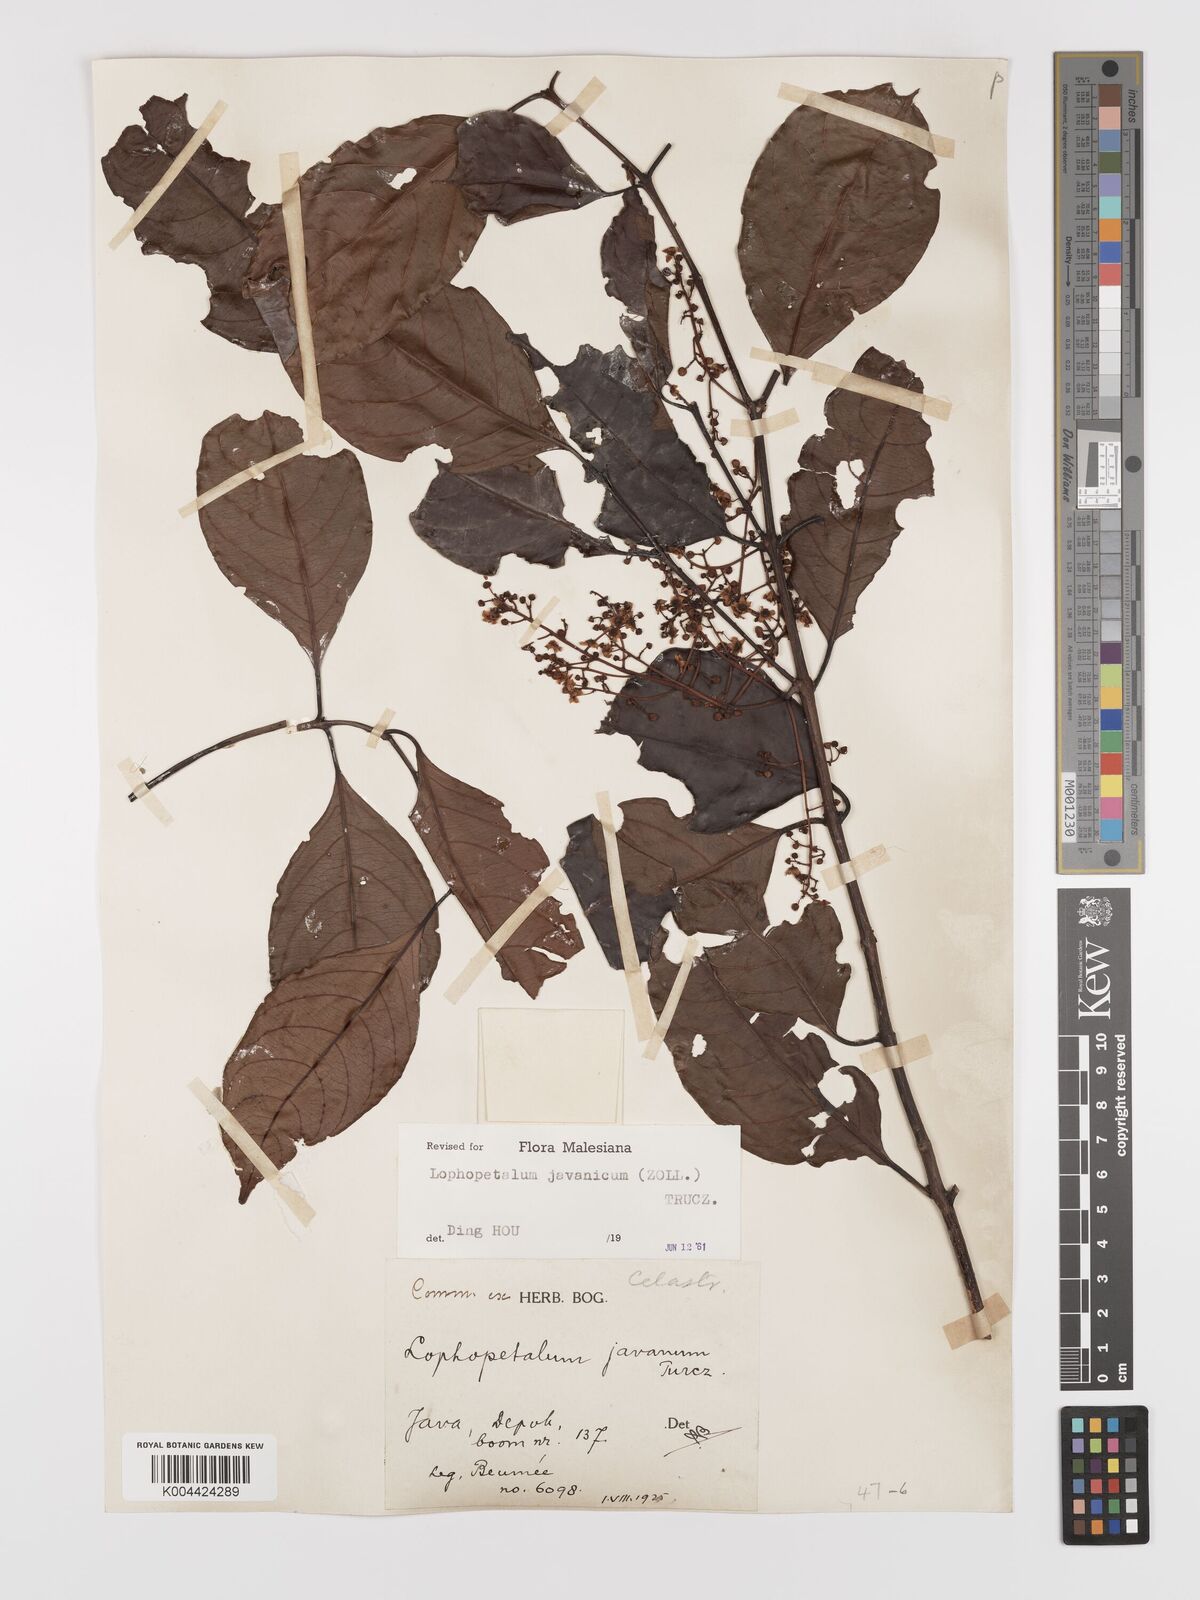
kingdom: Plantae
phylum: Tracheophyta
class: Magnoliopsida
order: Celastrales
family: Celastraceae
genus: Lophopetalum
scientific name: Lophopetalum javanicum
